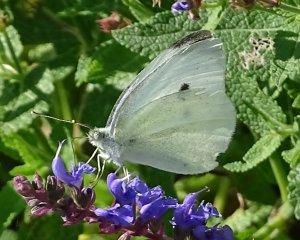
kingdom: Animalia
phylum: Arthropoda
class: Insecta
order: Lepidoptera
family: Pieridae
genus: Pieris
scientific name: Pieris rapae
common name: Cabbage White
